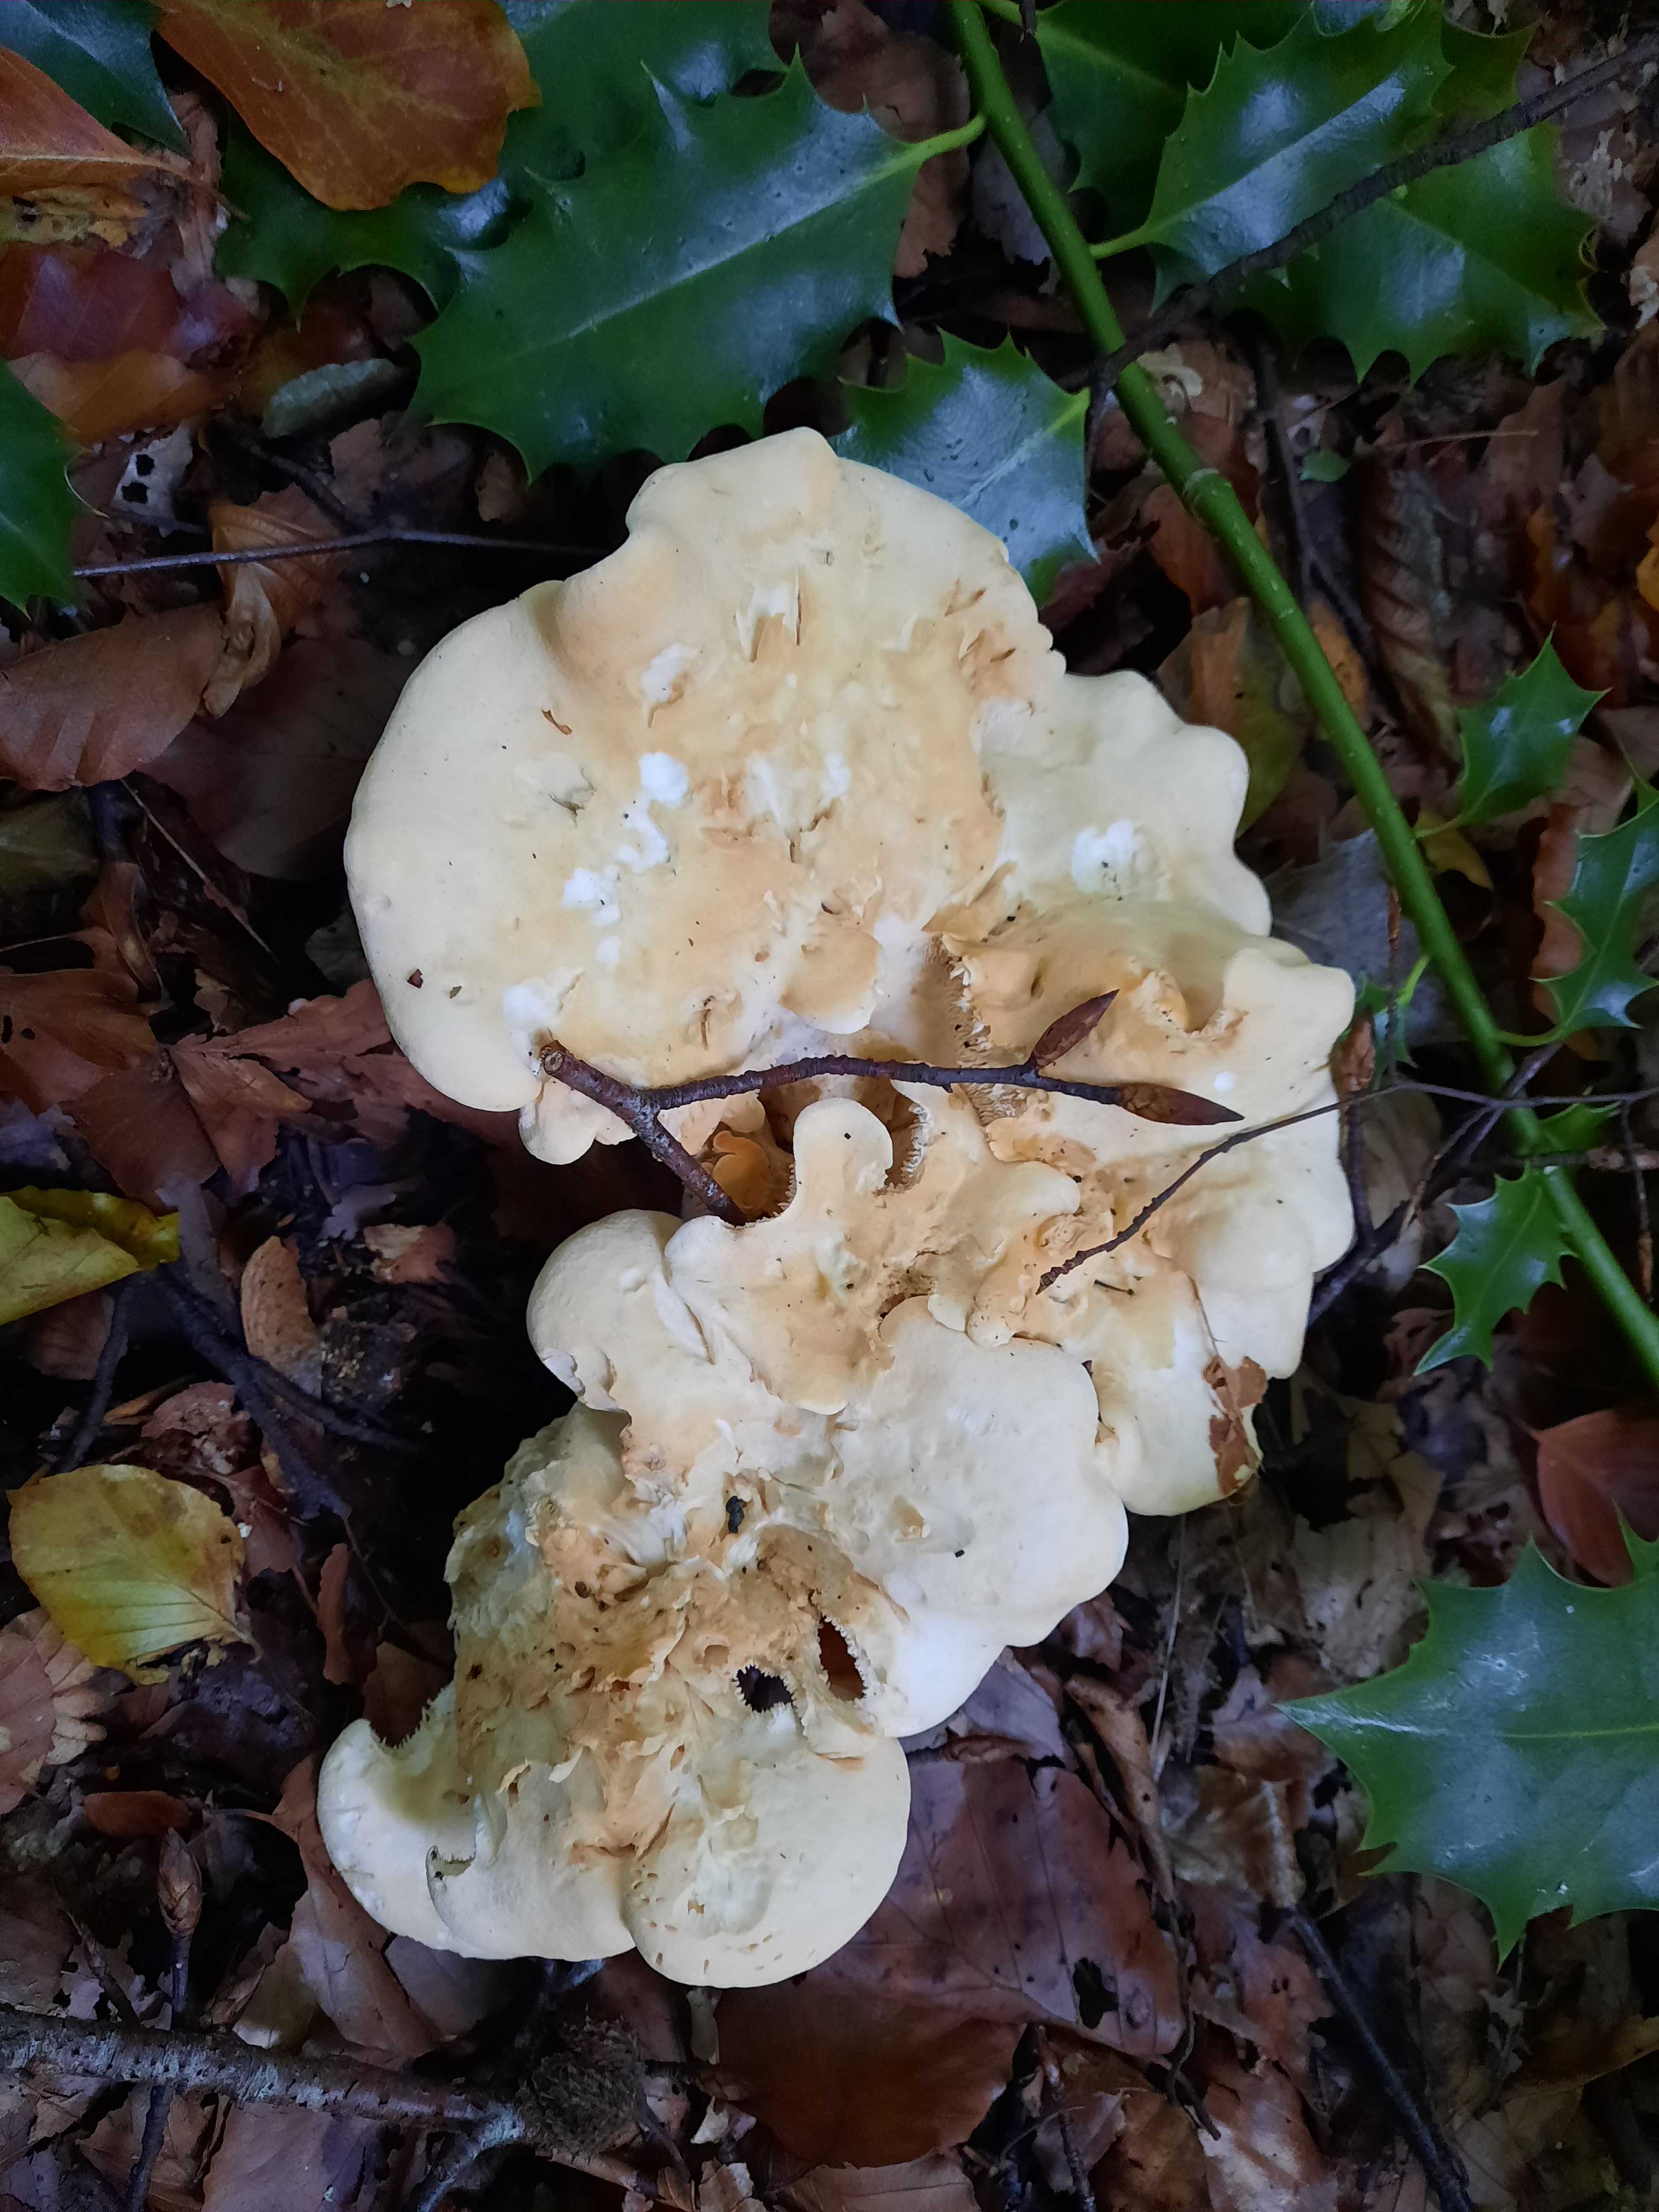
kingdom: Fungi
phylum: Basidiomycota
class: Agaricomycetes
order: Cantharellales
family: Hydnaceae
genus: Hydnum
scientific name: Hydnum repandum
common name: almindelig pigsvamp
